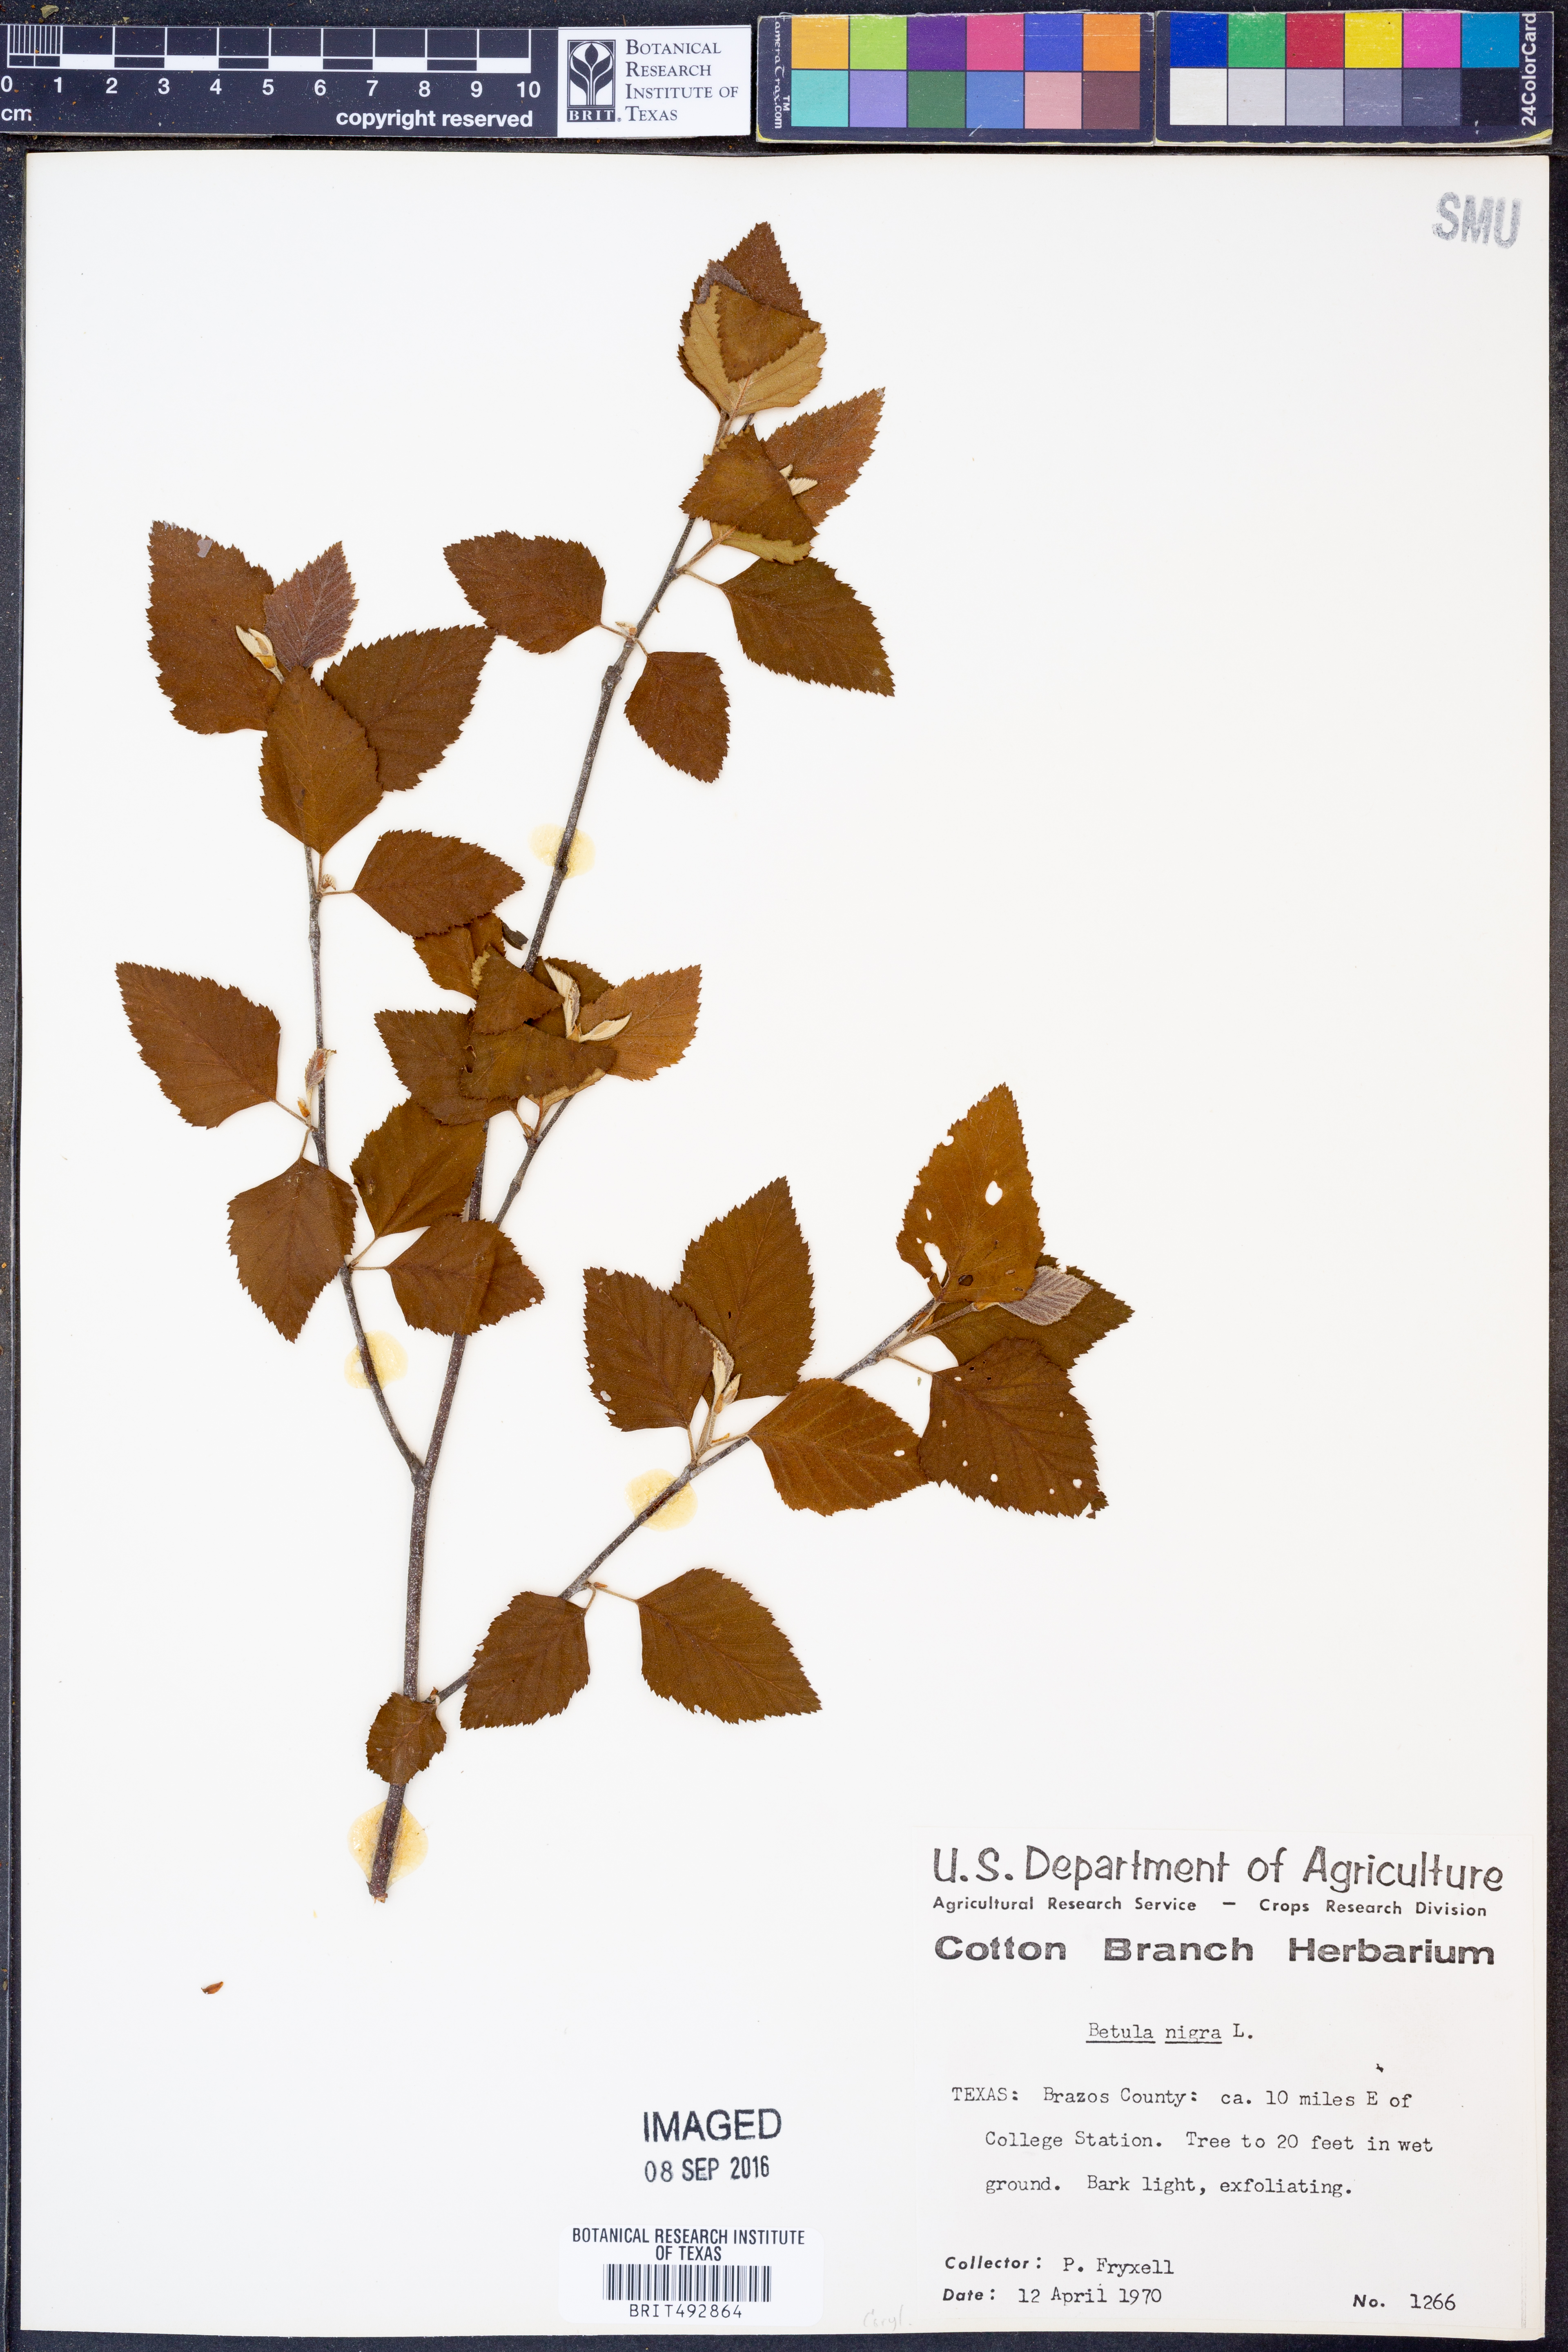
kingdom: Plantae
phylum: Tracheophyta
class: Magnoliopsida
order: Fagales
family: Betulaceae
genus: Betula
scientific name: Betula nigra
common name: Black birch
